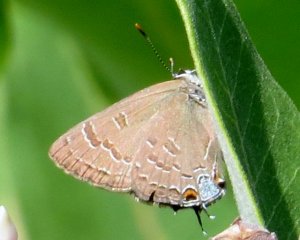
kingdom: Animalia
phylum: Arthropoda
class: Insecta
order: Lepidoptera
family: Lycaenidae
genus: Satyrium
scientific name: Satyrium calanus
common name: Banded Hairstreak
